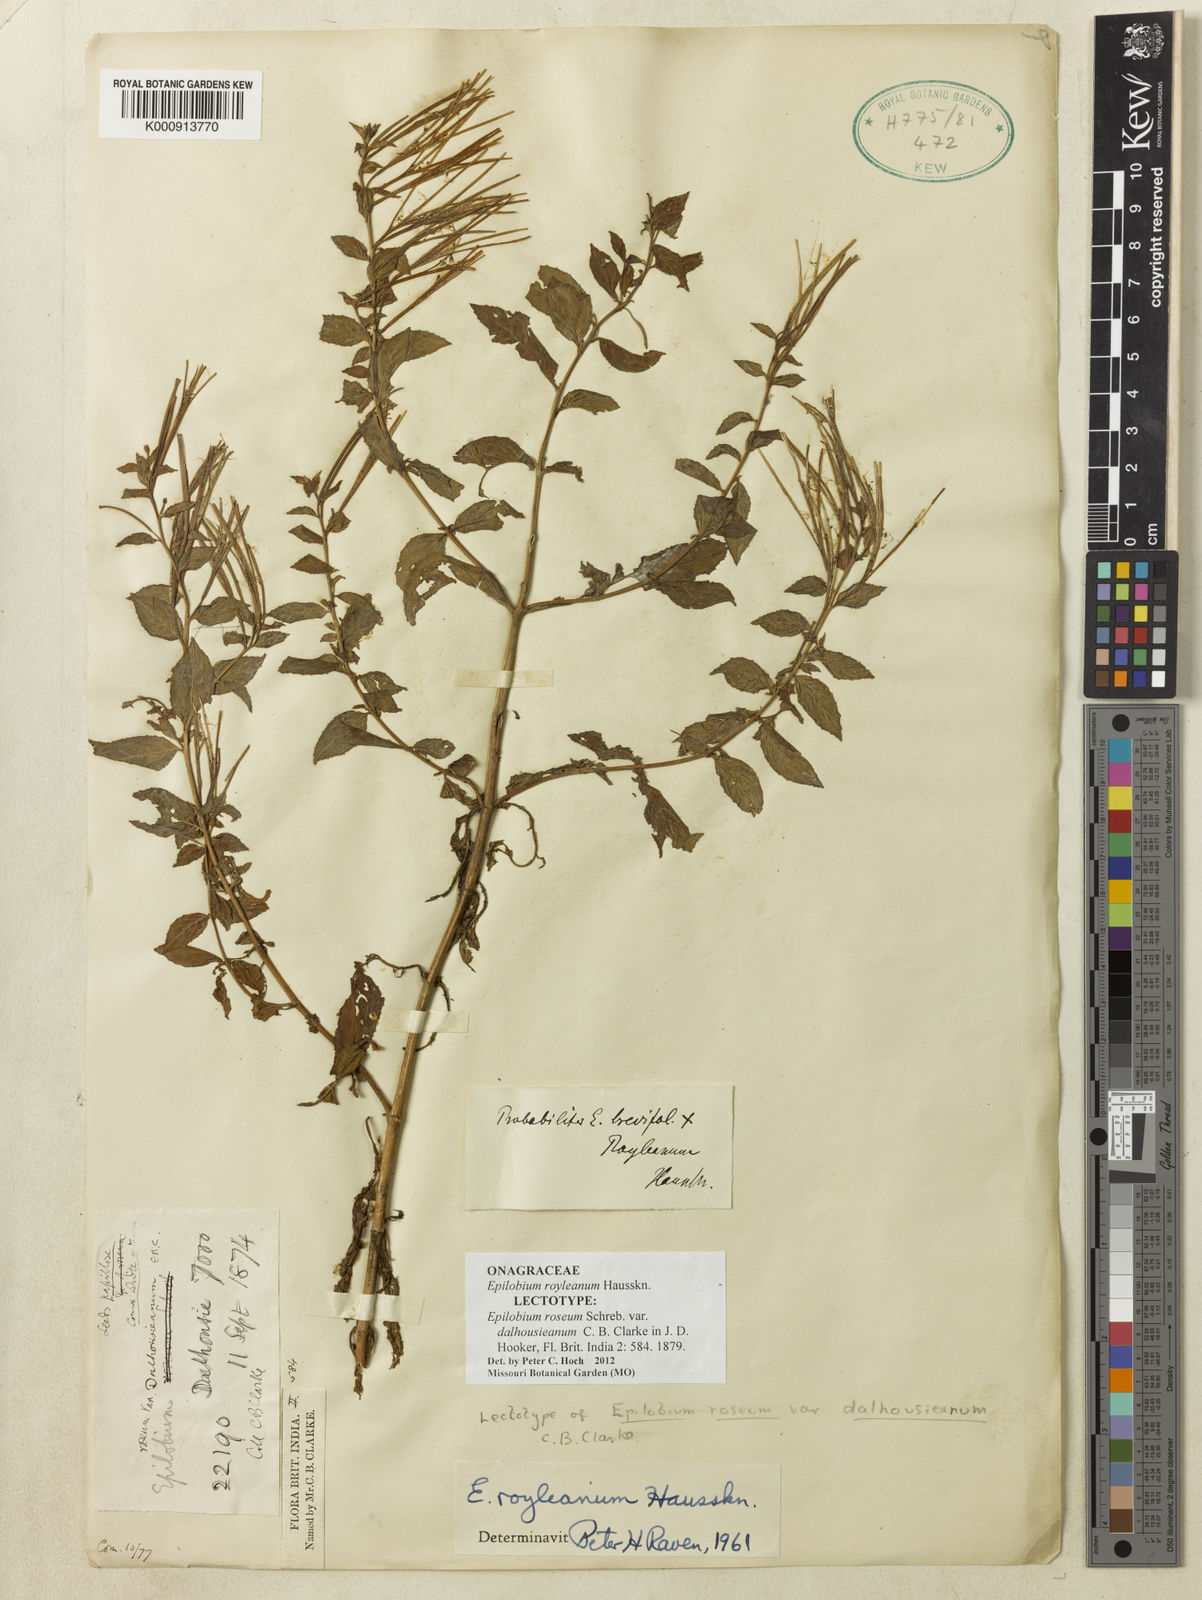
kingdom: Plantae
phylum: Tracheophyta
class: Magnoliopsida
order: Myrtales
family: Onagraceae
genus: Epilobium
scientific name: Epilobium royleanum
